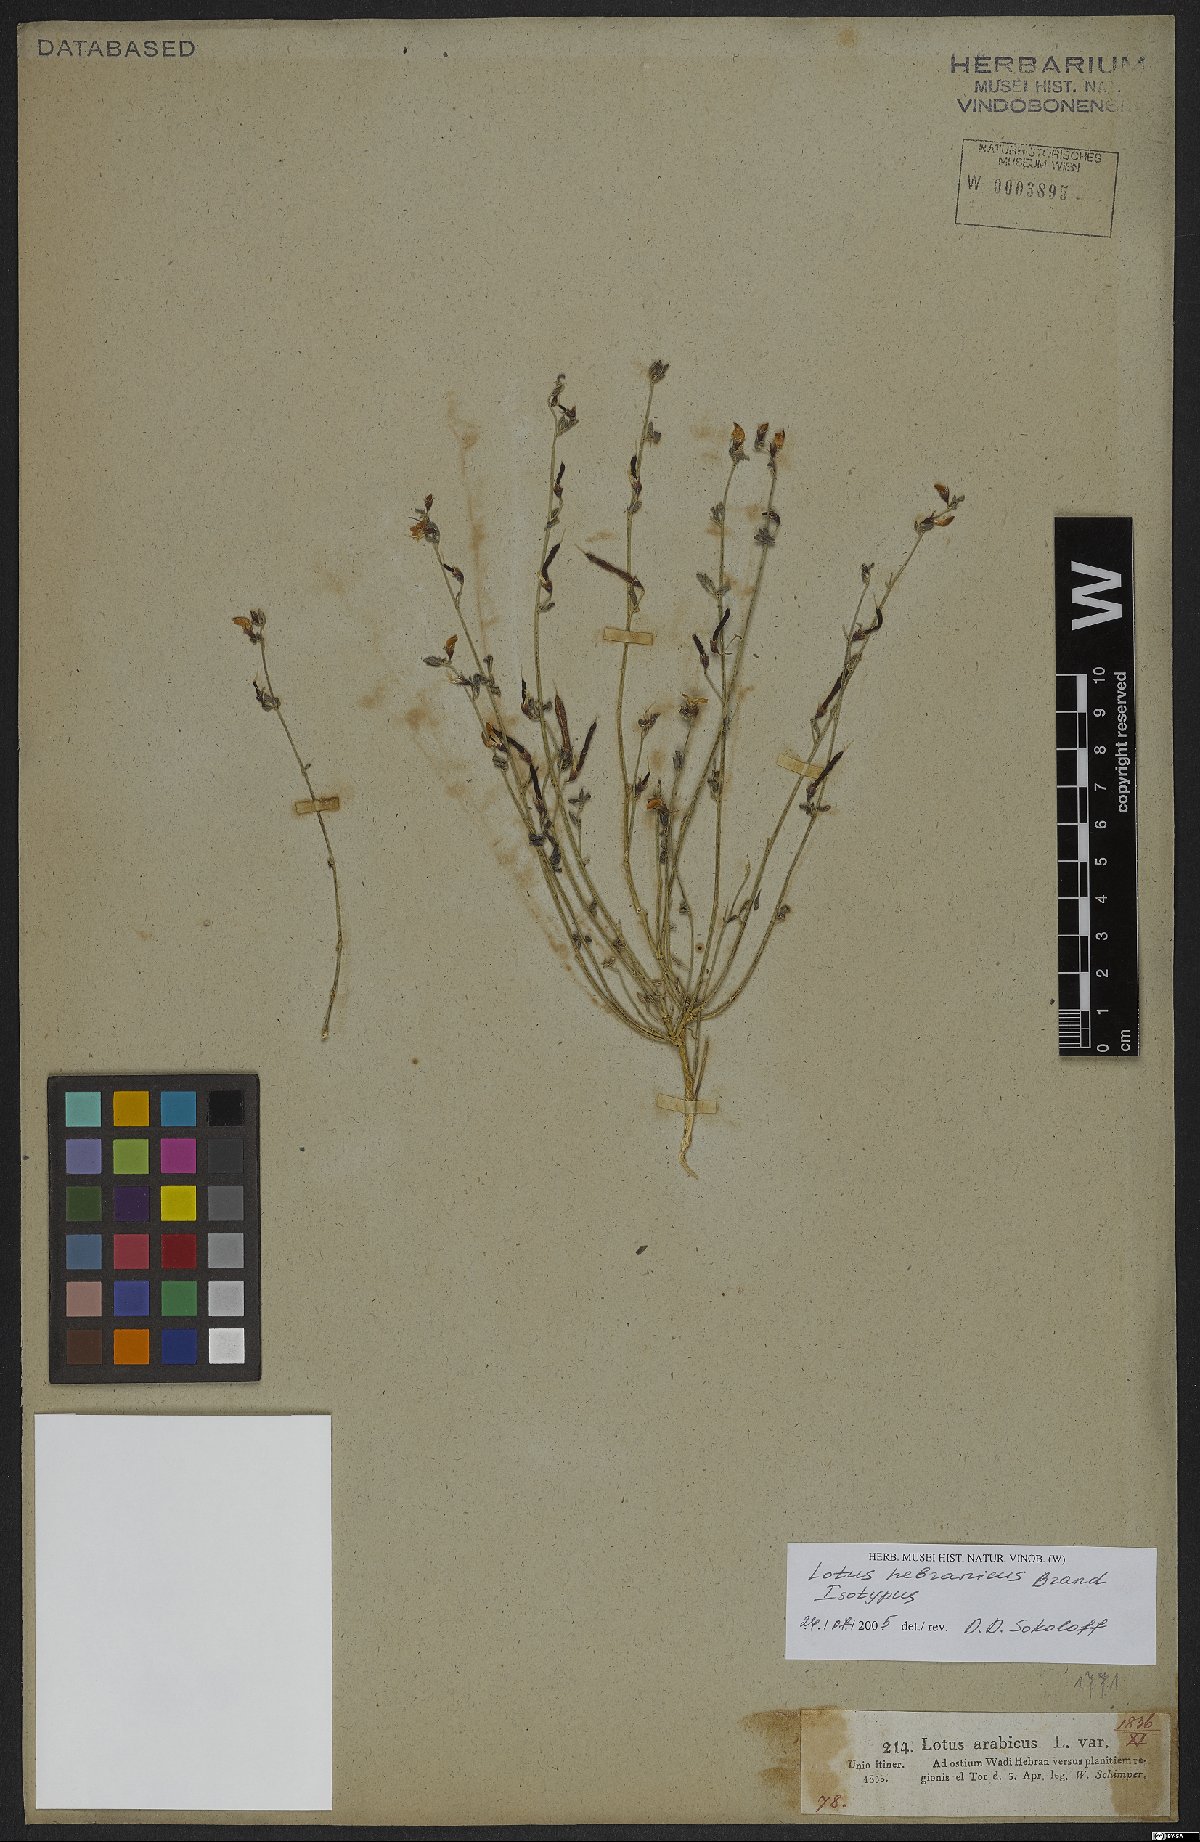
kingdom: Plantae
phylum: Tracheophyta
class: Magnoliopsida
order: Fabales
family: Fabaceae
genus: Lotus
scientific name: Lotus hebranicus
